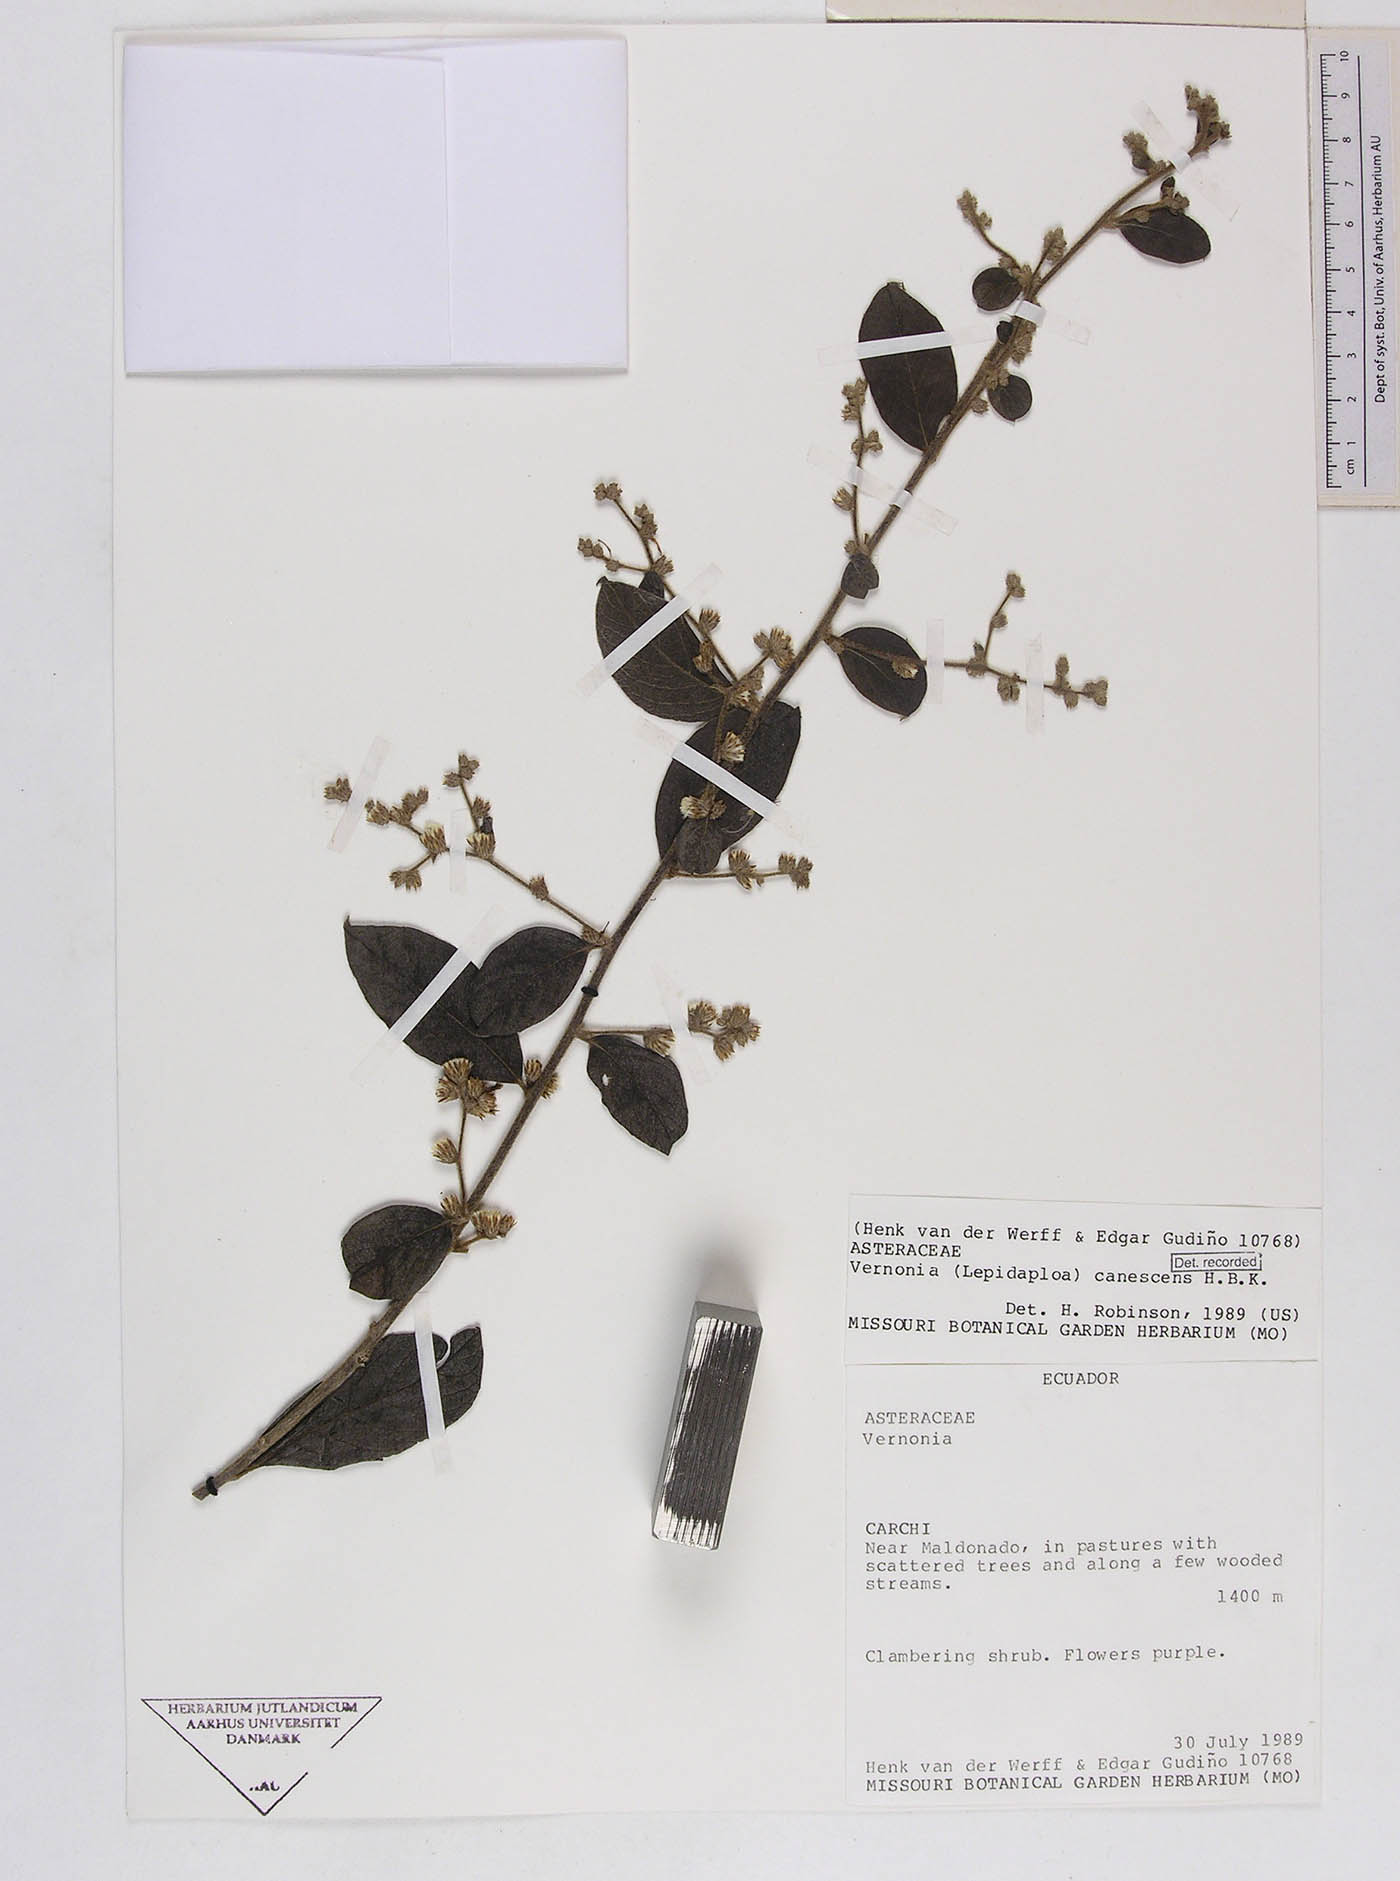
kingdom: Plantae
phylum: Tracheophyta
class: Magnoliopsida
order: Asterales
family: Asteraceae
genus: Lepidaploa
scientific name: Lepidaploa canescens
